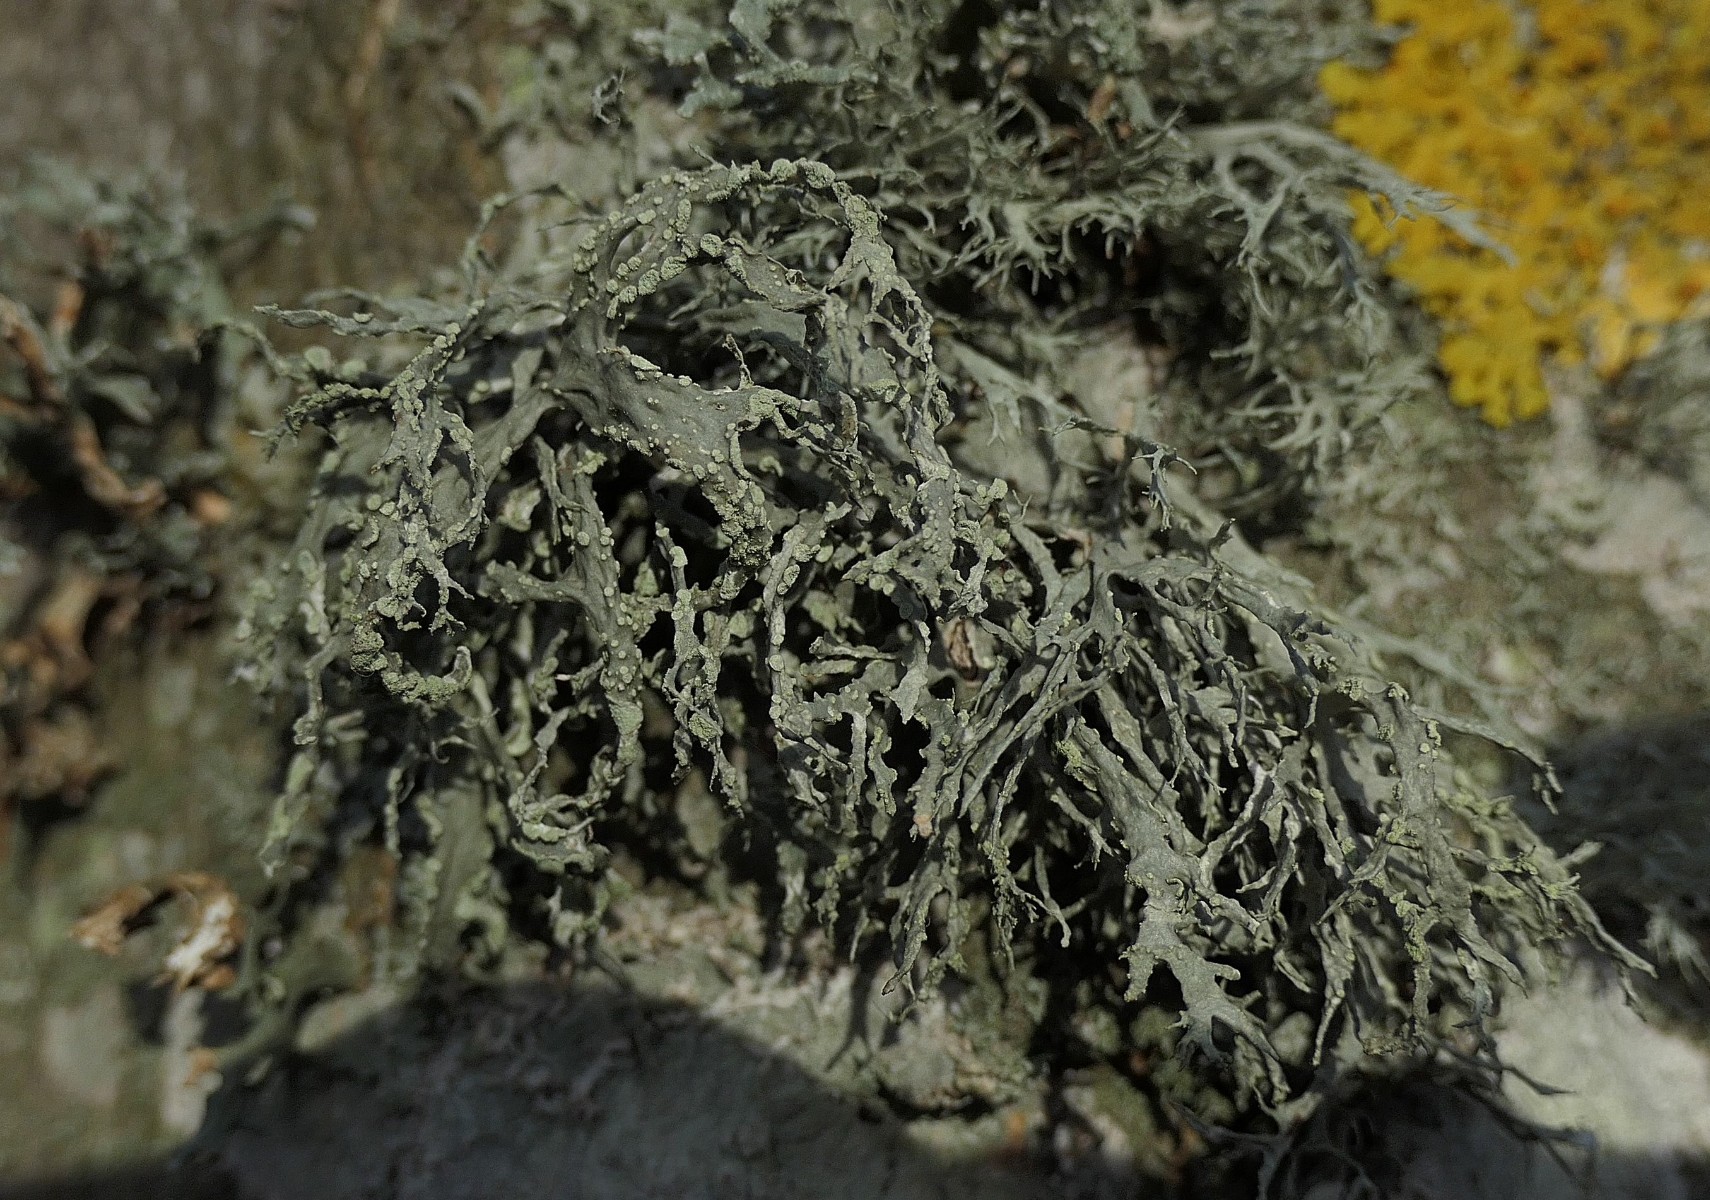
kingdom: Fungi
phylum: Ascomycota
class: Lecanoromycetes
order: Lecanorales
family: Ramalinaceae
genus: Ramalina
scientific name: Ramalina farinacea
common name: melet grenlav
